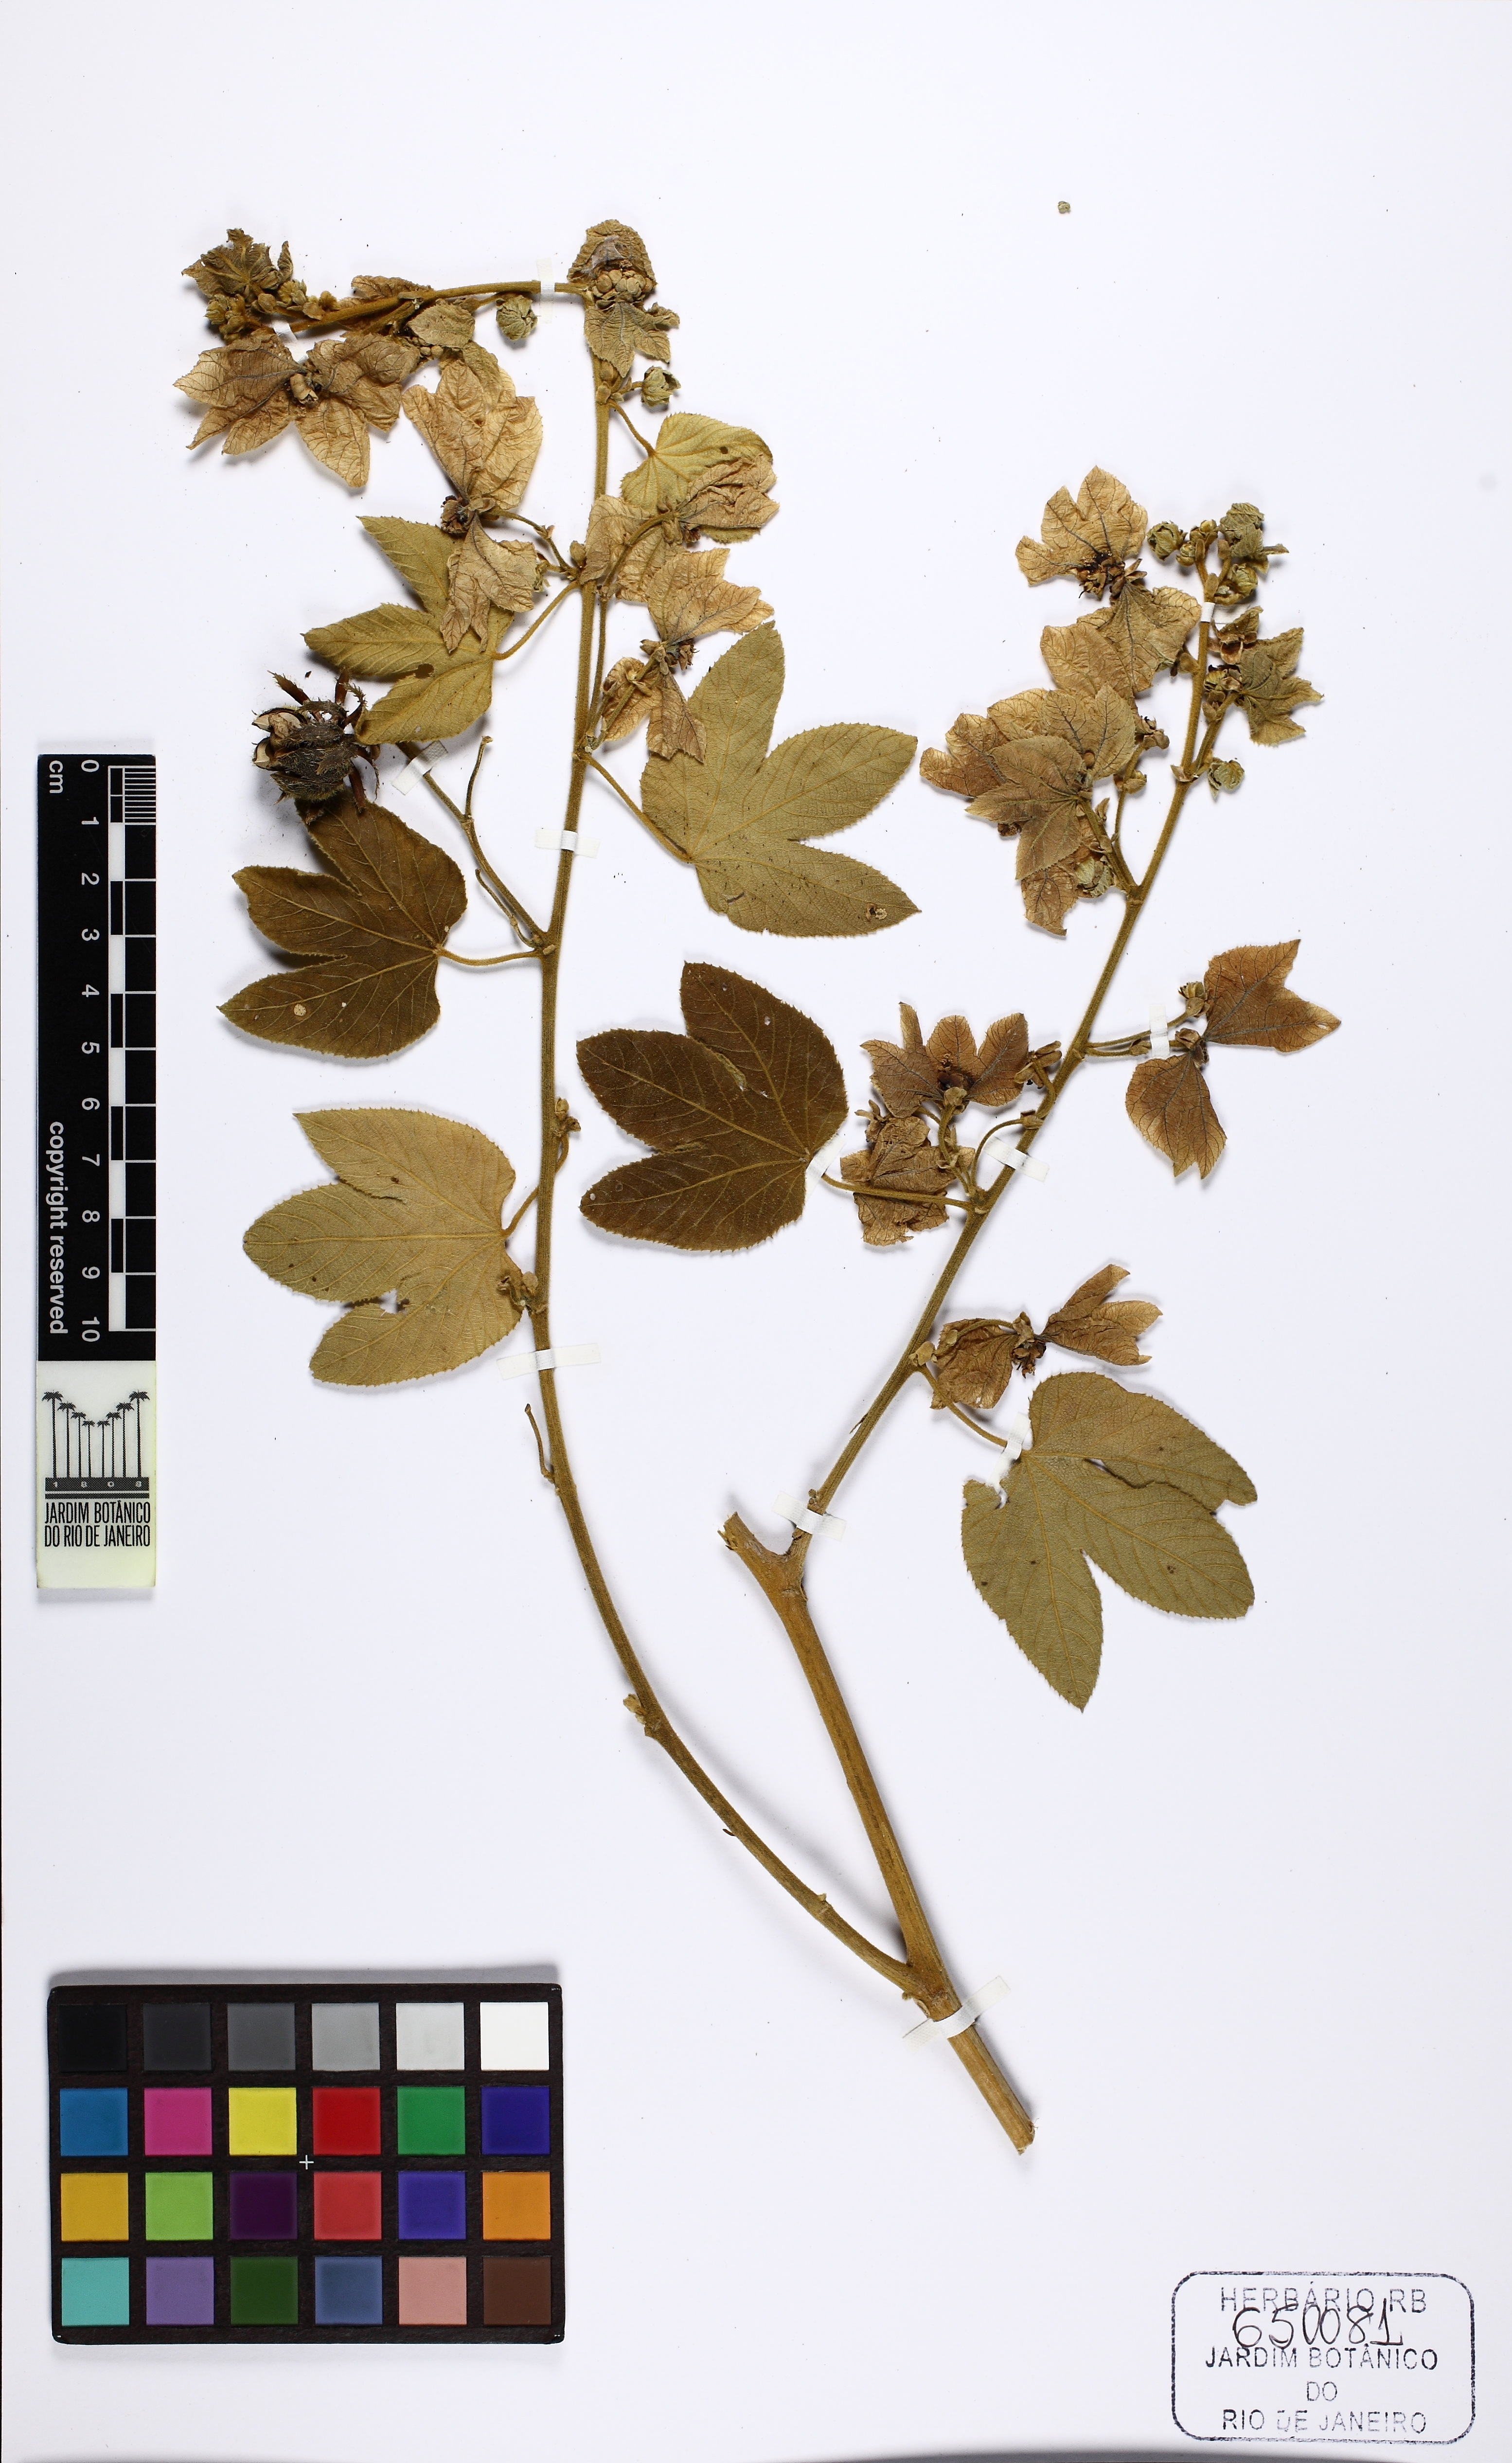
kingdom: Plantae
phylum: Tracheophyta
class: Magnoliopsida
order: Malpighiales
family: Euphorbiaceae
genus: Dalechampia
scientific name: Dalechampia ficifolia
